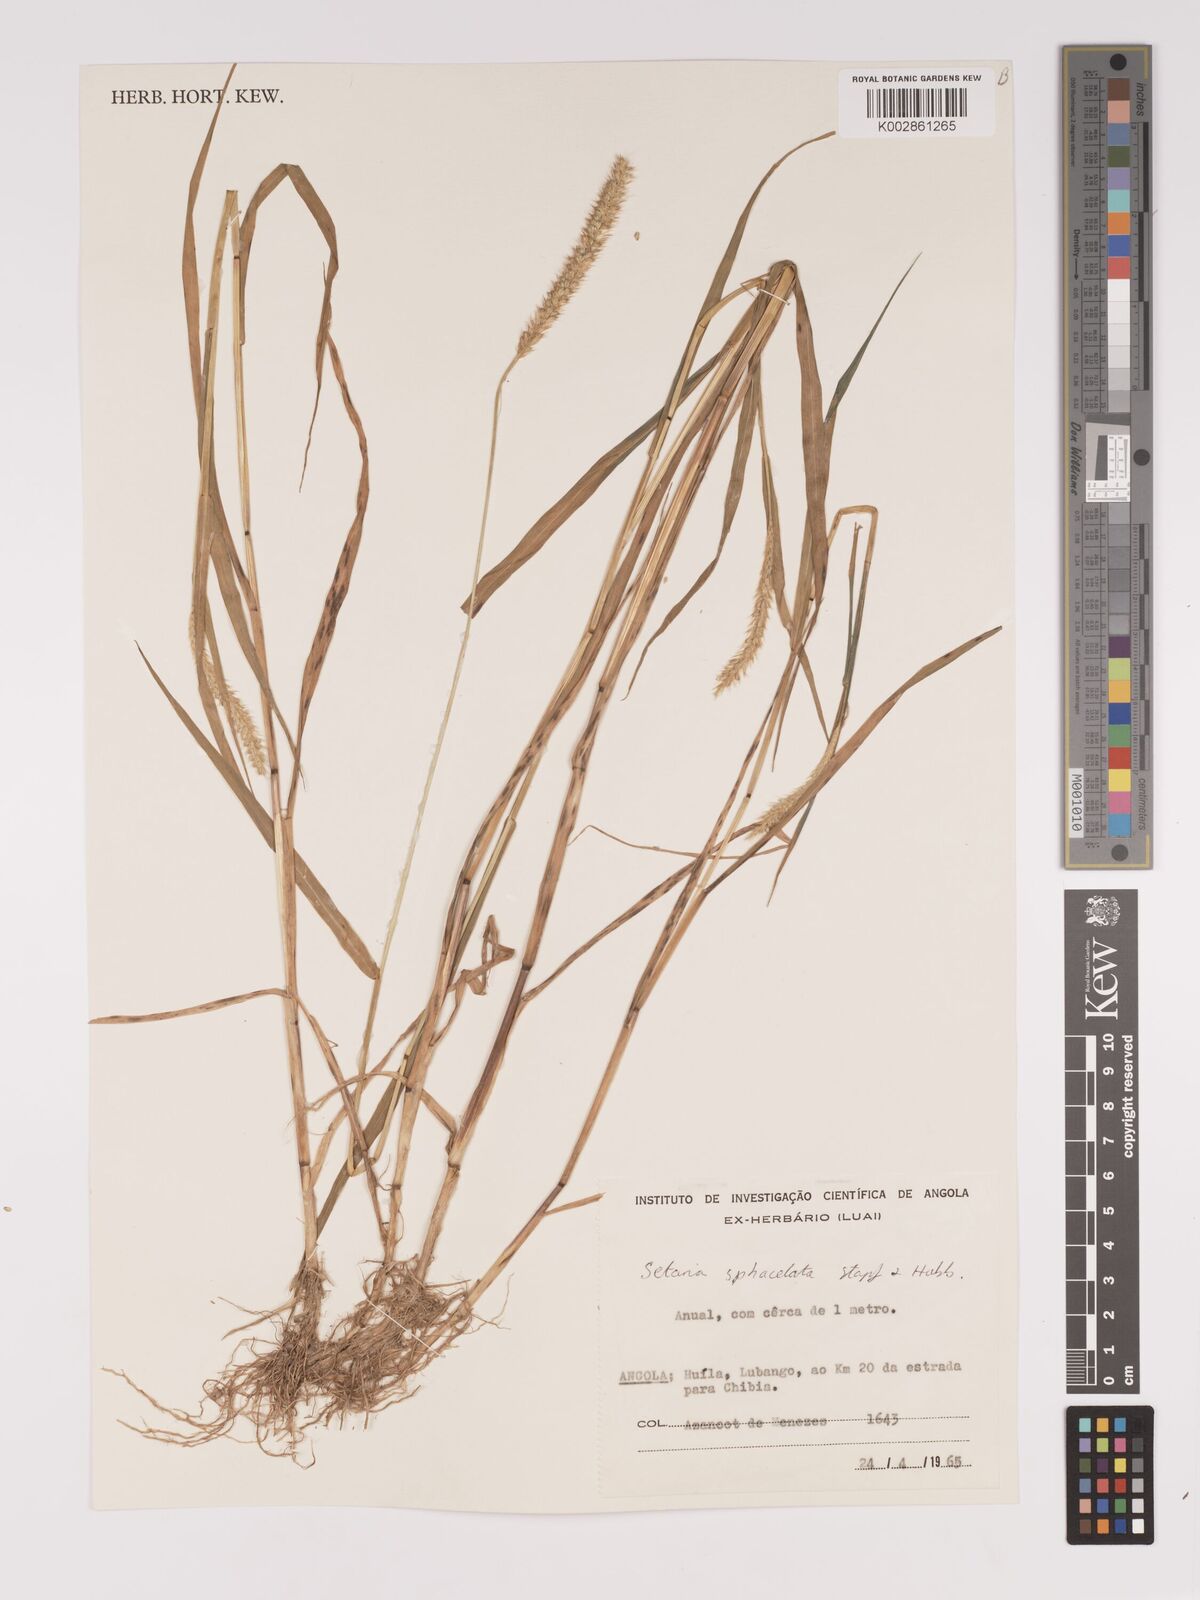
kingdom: Plantae
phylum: Tracheophyta
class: Liliopsida
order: Poales
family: Poaceae
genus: Setaria
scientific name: Setaria sphacelata
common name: African bristlegrass
